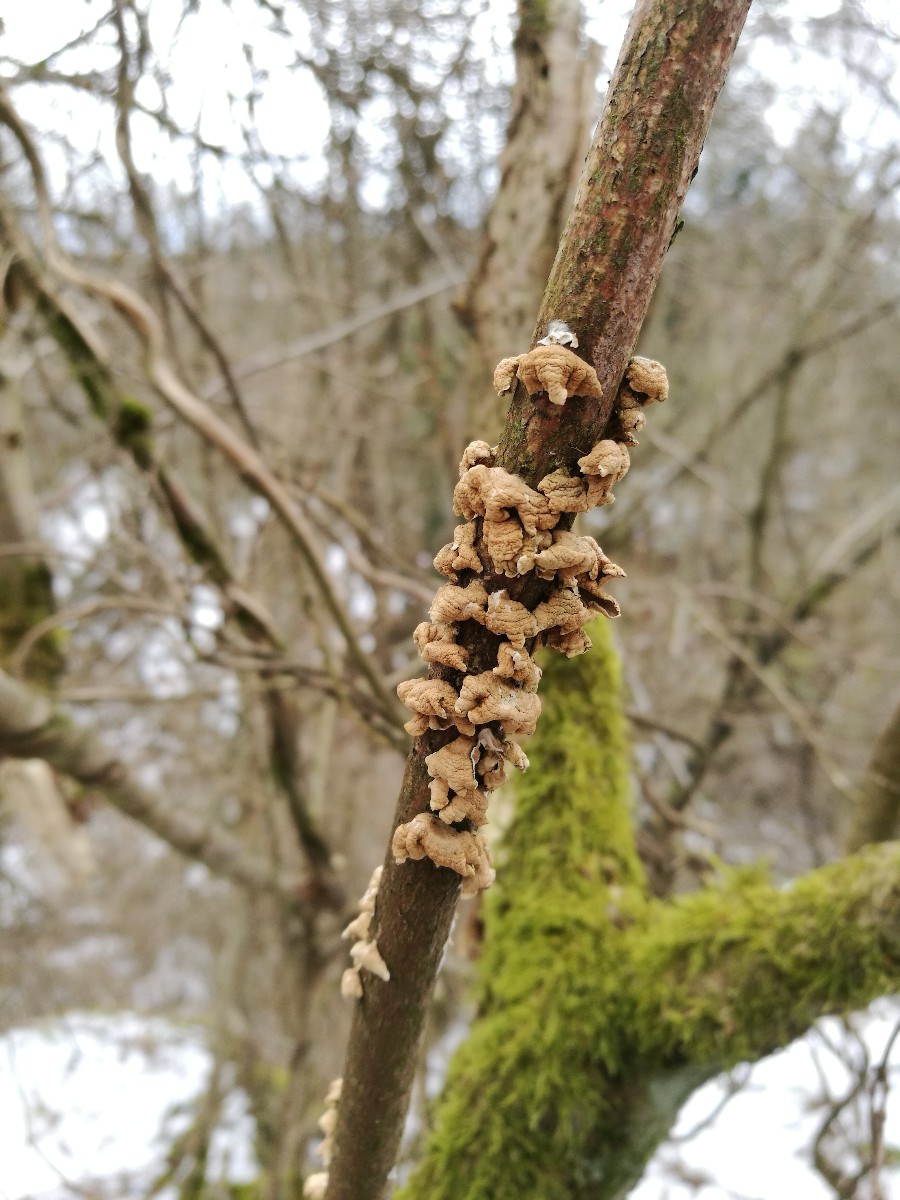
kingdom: Fungi
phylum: Basidiomycota
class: Agaricomycetes
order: Amylocorticiales
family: Amylocorticiaceae
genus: Plicaturopsis
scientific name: Plicaturopsis crispa
